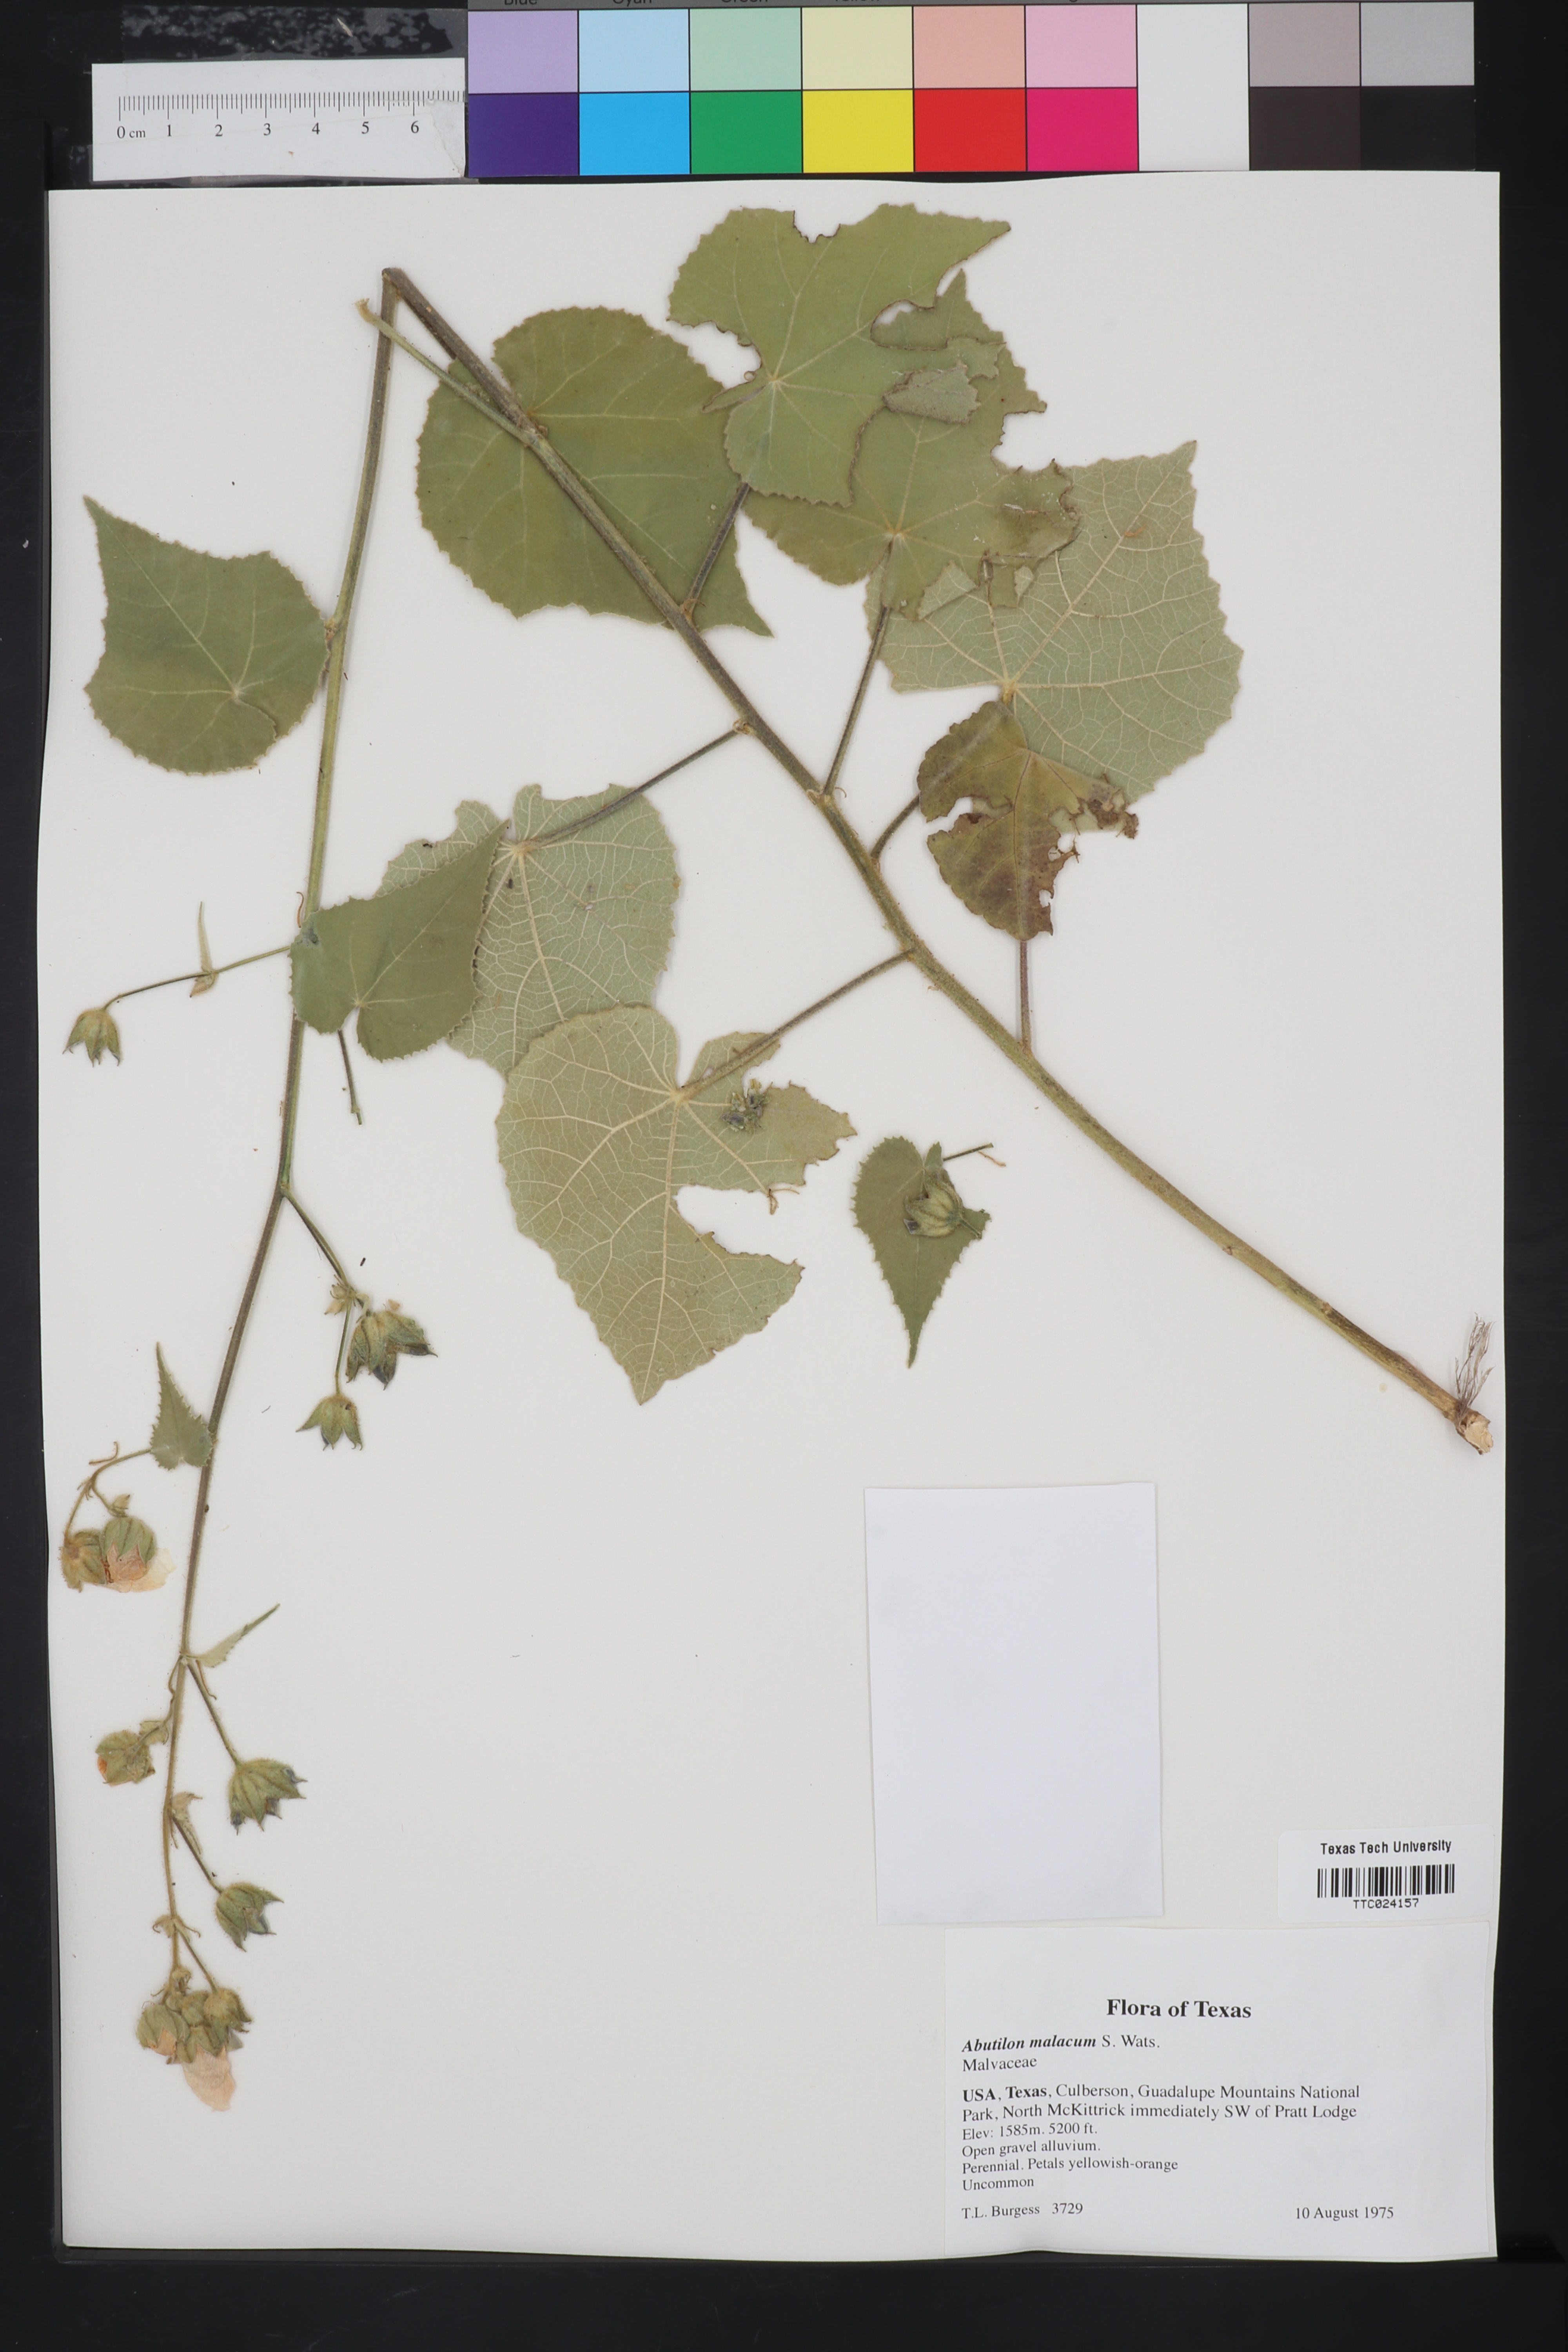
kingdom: Plantae
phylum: Tracheophyta
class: Magnoliopsida
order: Malvales
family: Malvaceae
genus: Abutilon
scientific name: Abutilon malacum
